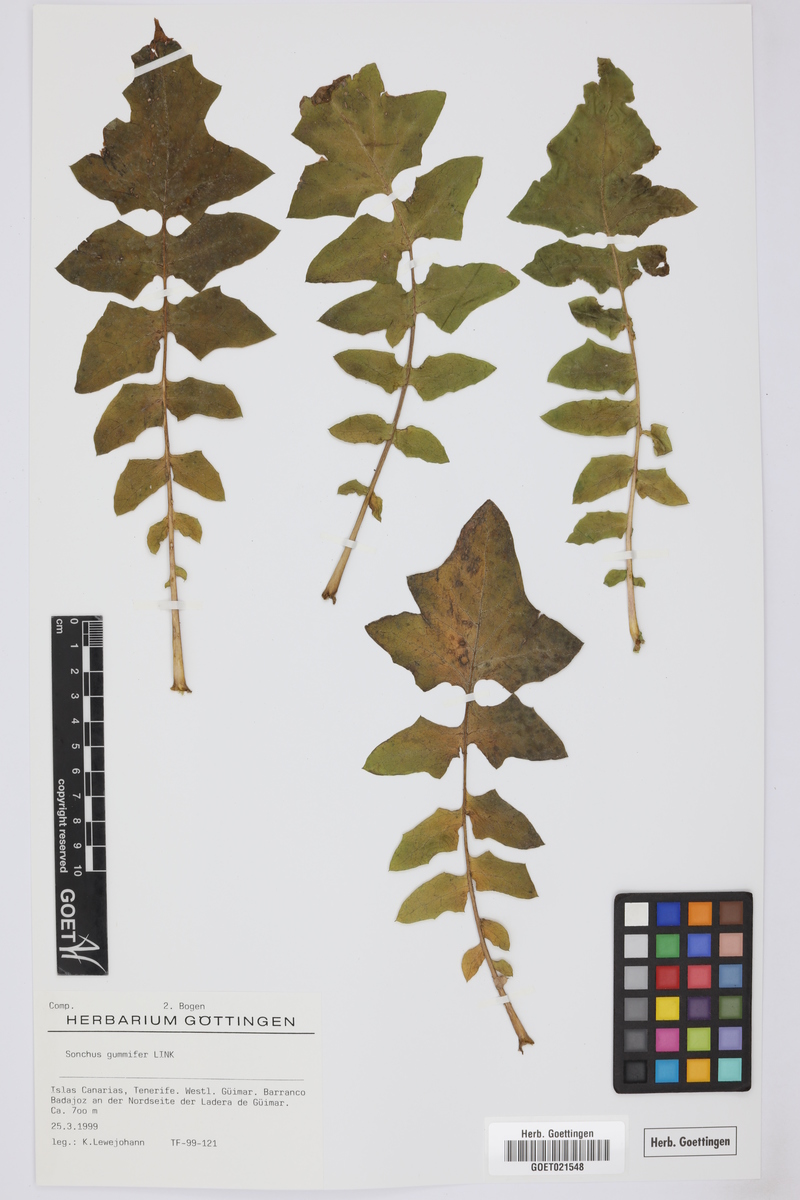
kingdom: Plantae
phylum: Tracheophyta
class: Magnoliopsida
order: Asterales
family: Asteraceae
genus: Sonchus
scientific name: Sonchus gummifer
